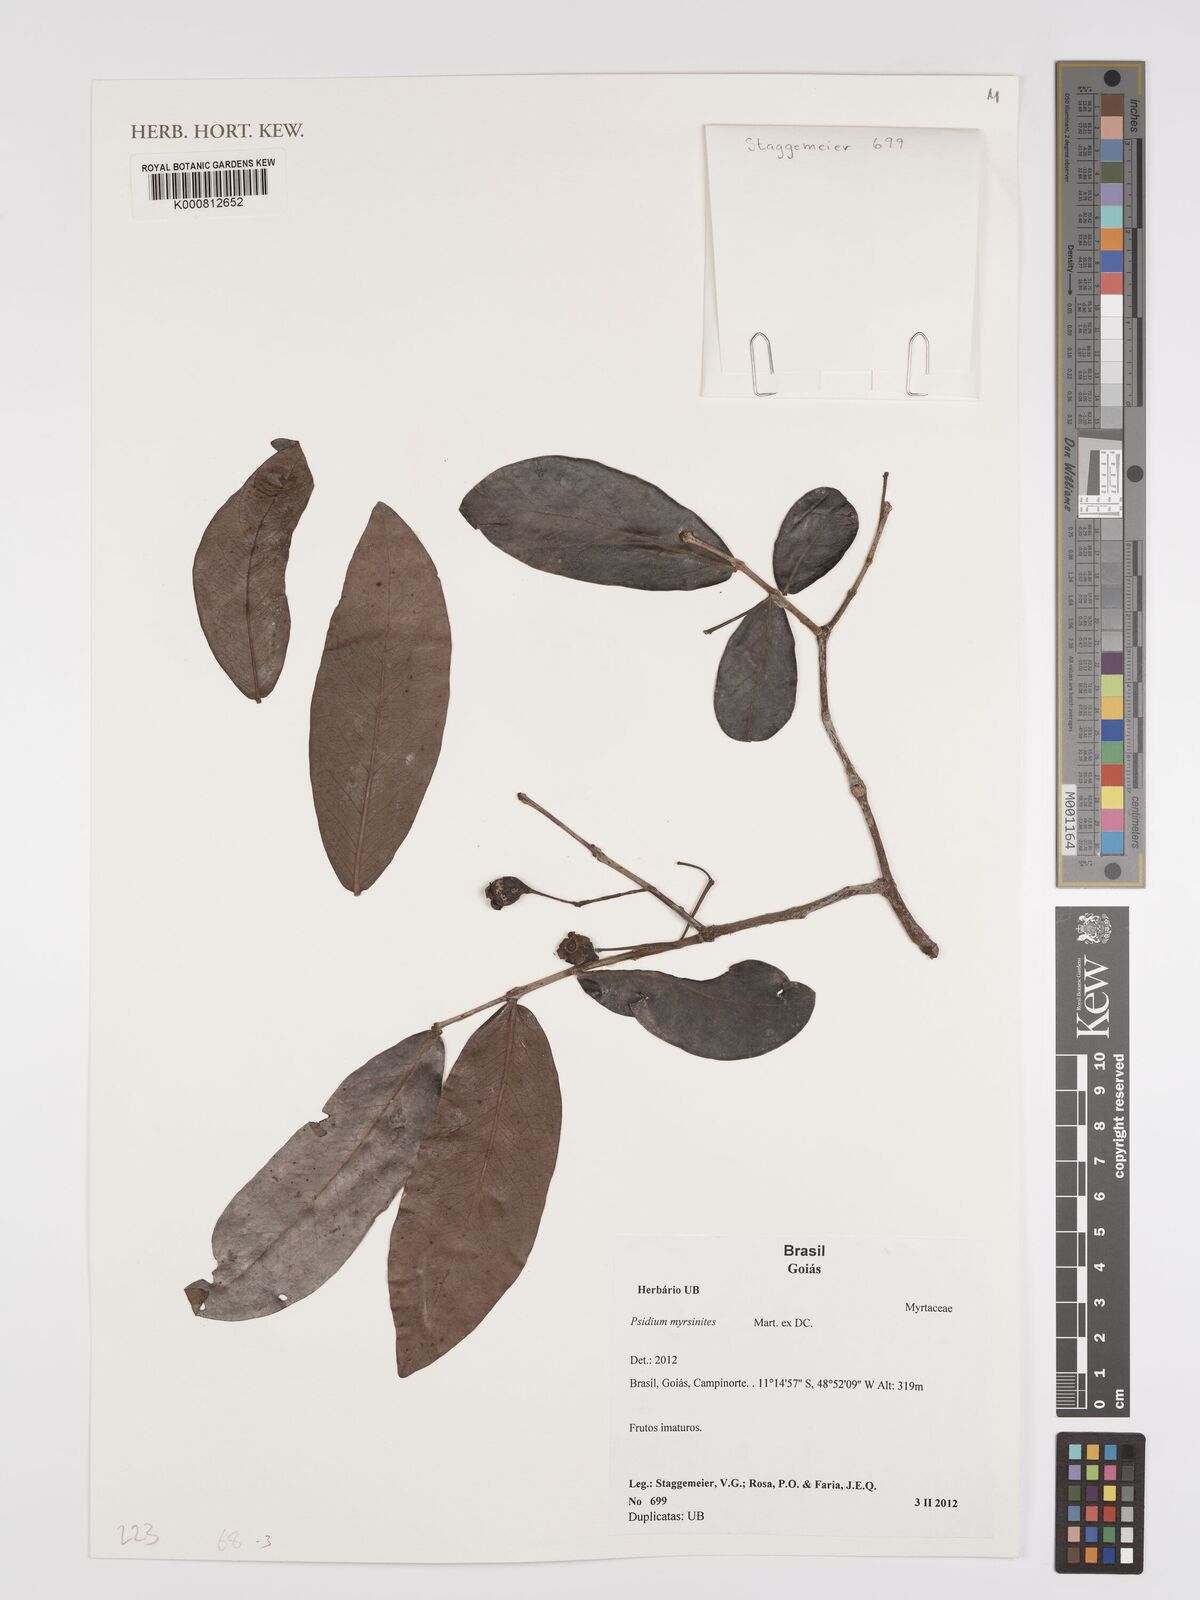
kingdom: Plantae
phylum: Tracheophyta
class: Magnoliopsida
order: Myrtales
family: Myrtaceae
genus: Psidium
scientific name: Psidium myrsinites
